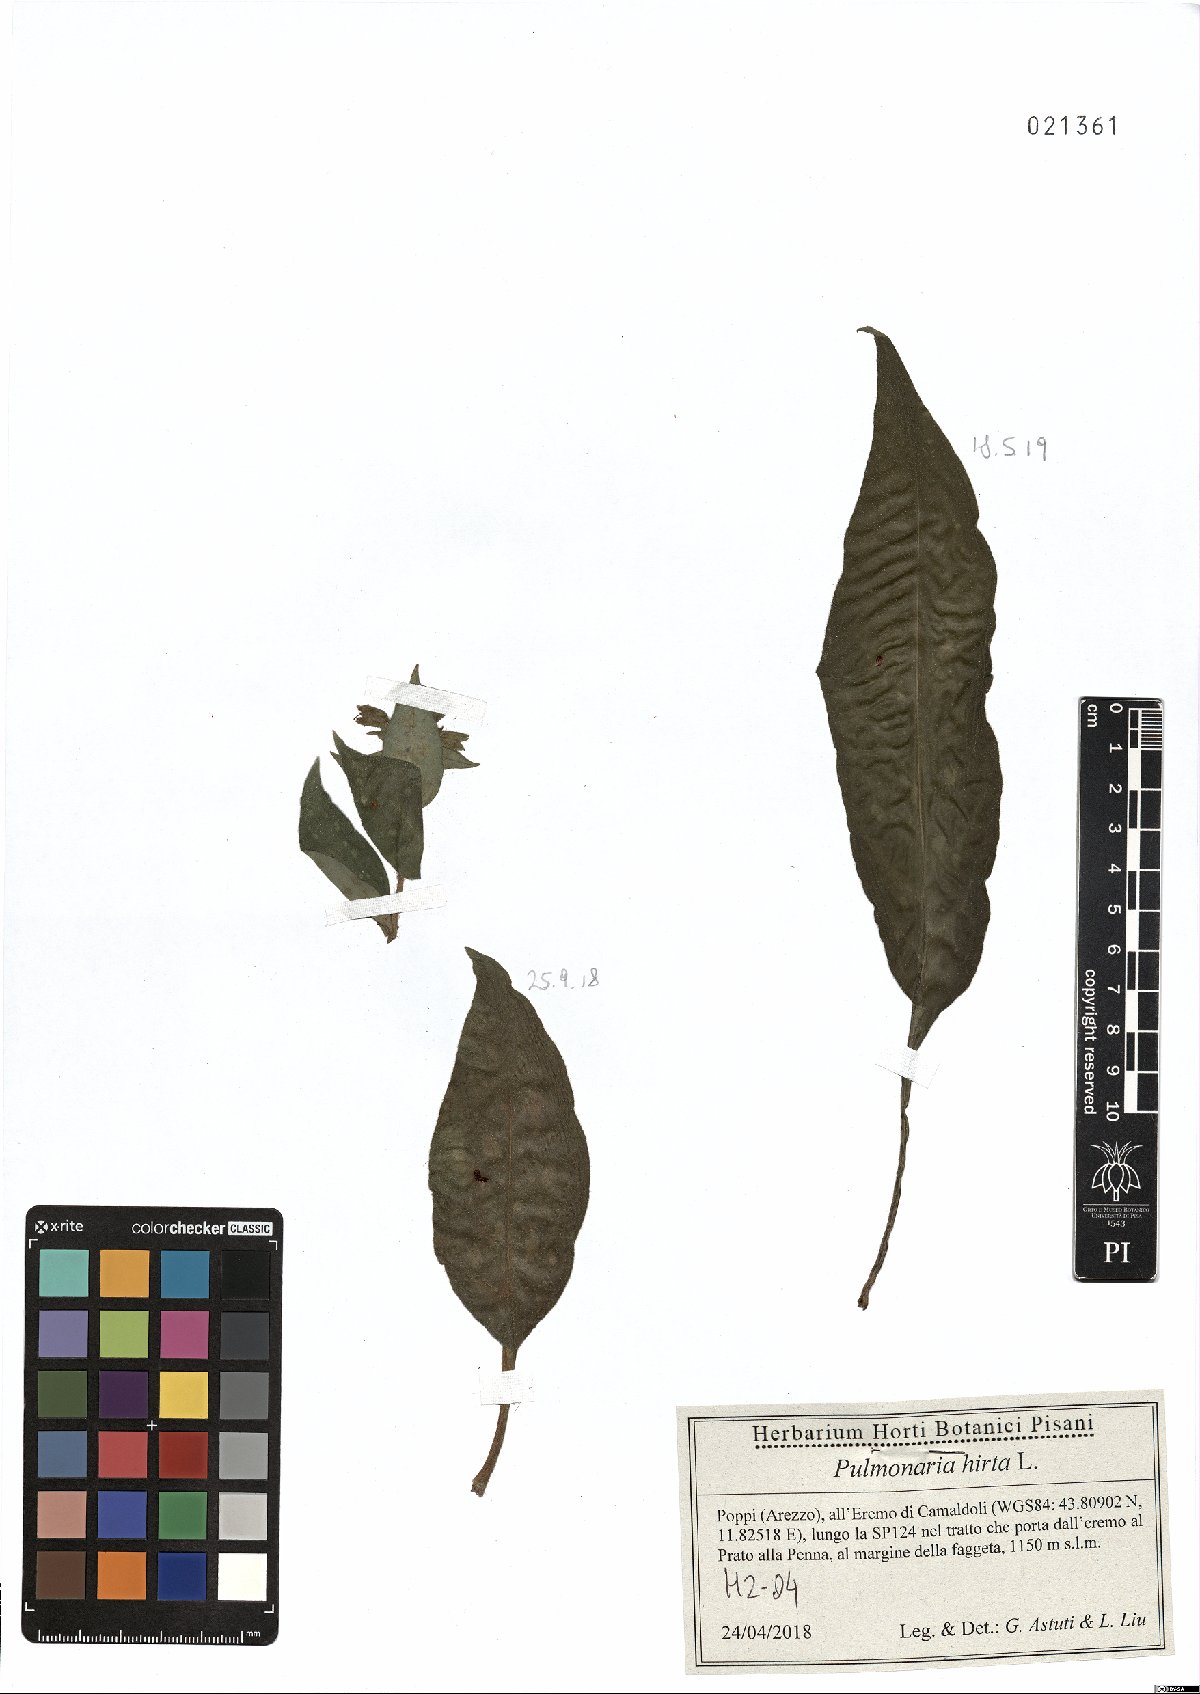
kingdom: Plantae
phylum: Tracheophyta
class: Magnoliopsida
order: Boraginales
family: Boraginaceae
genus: Pulmonaria
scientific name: Pulmonaria hirta
